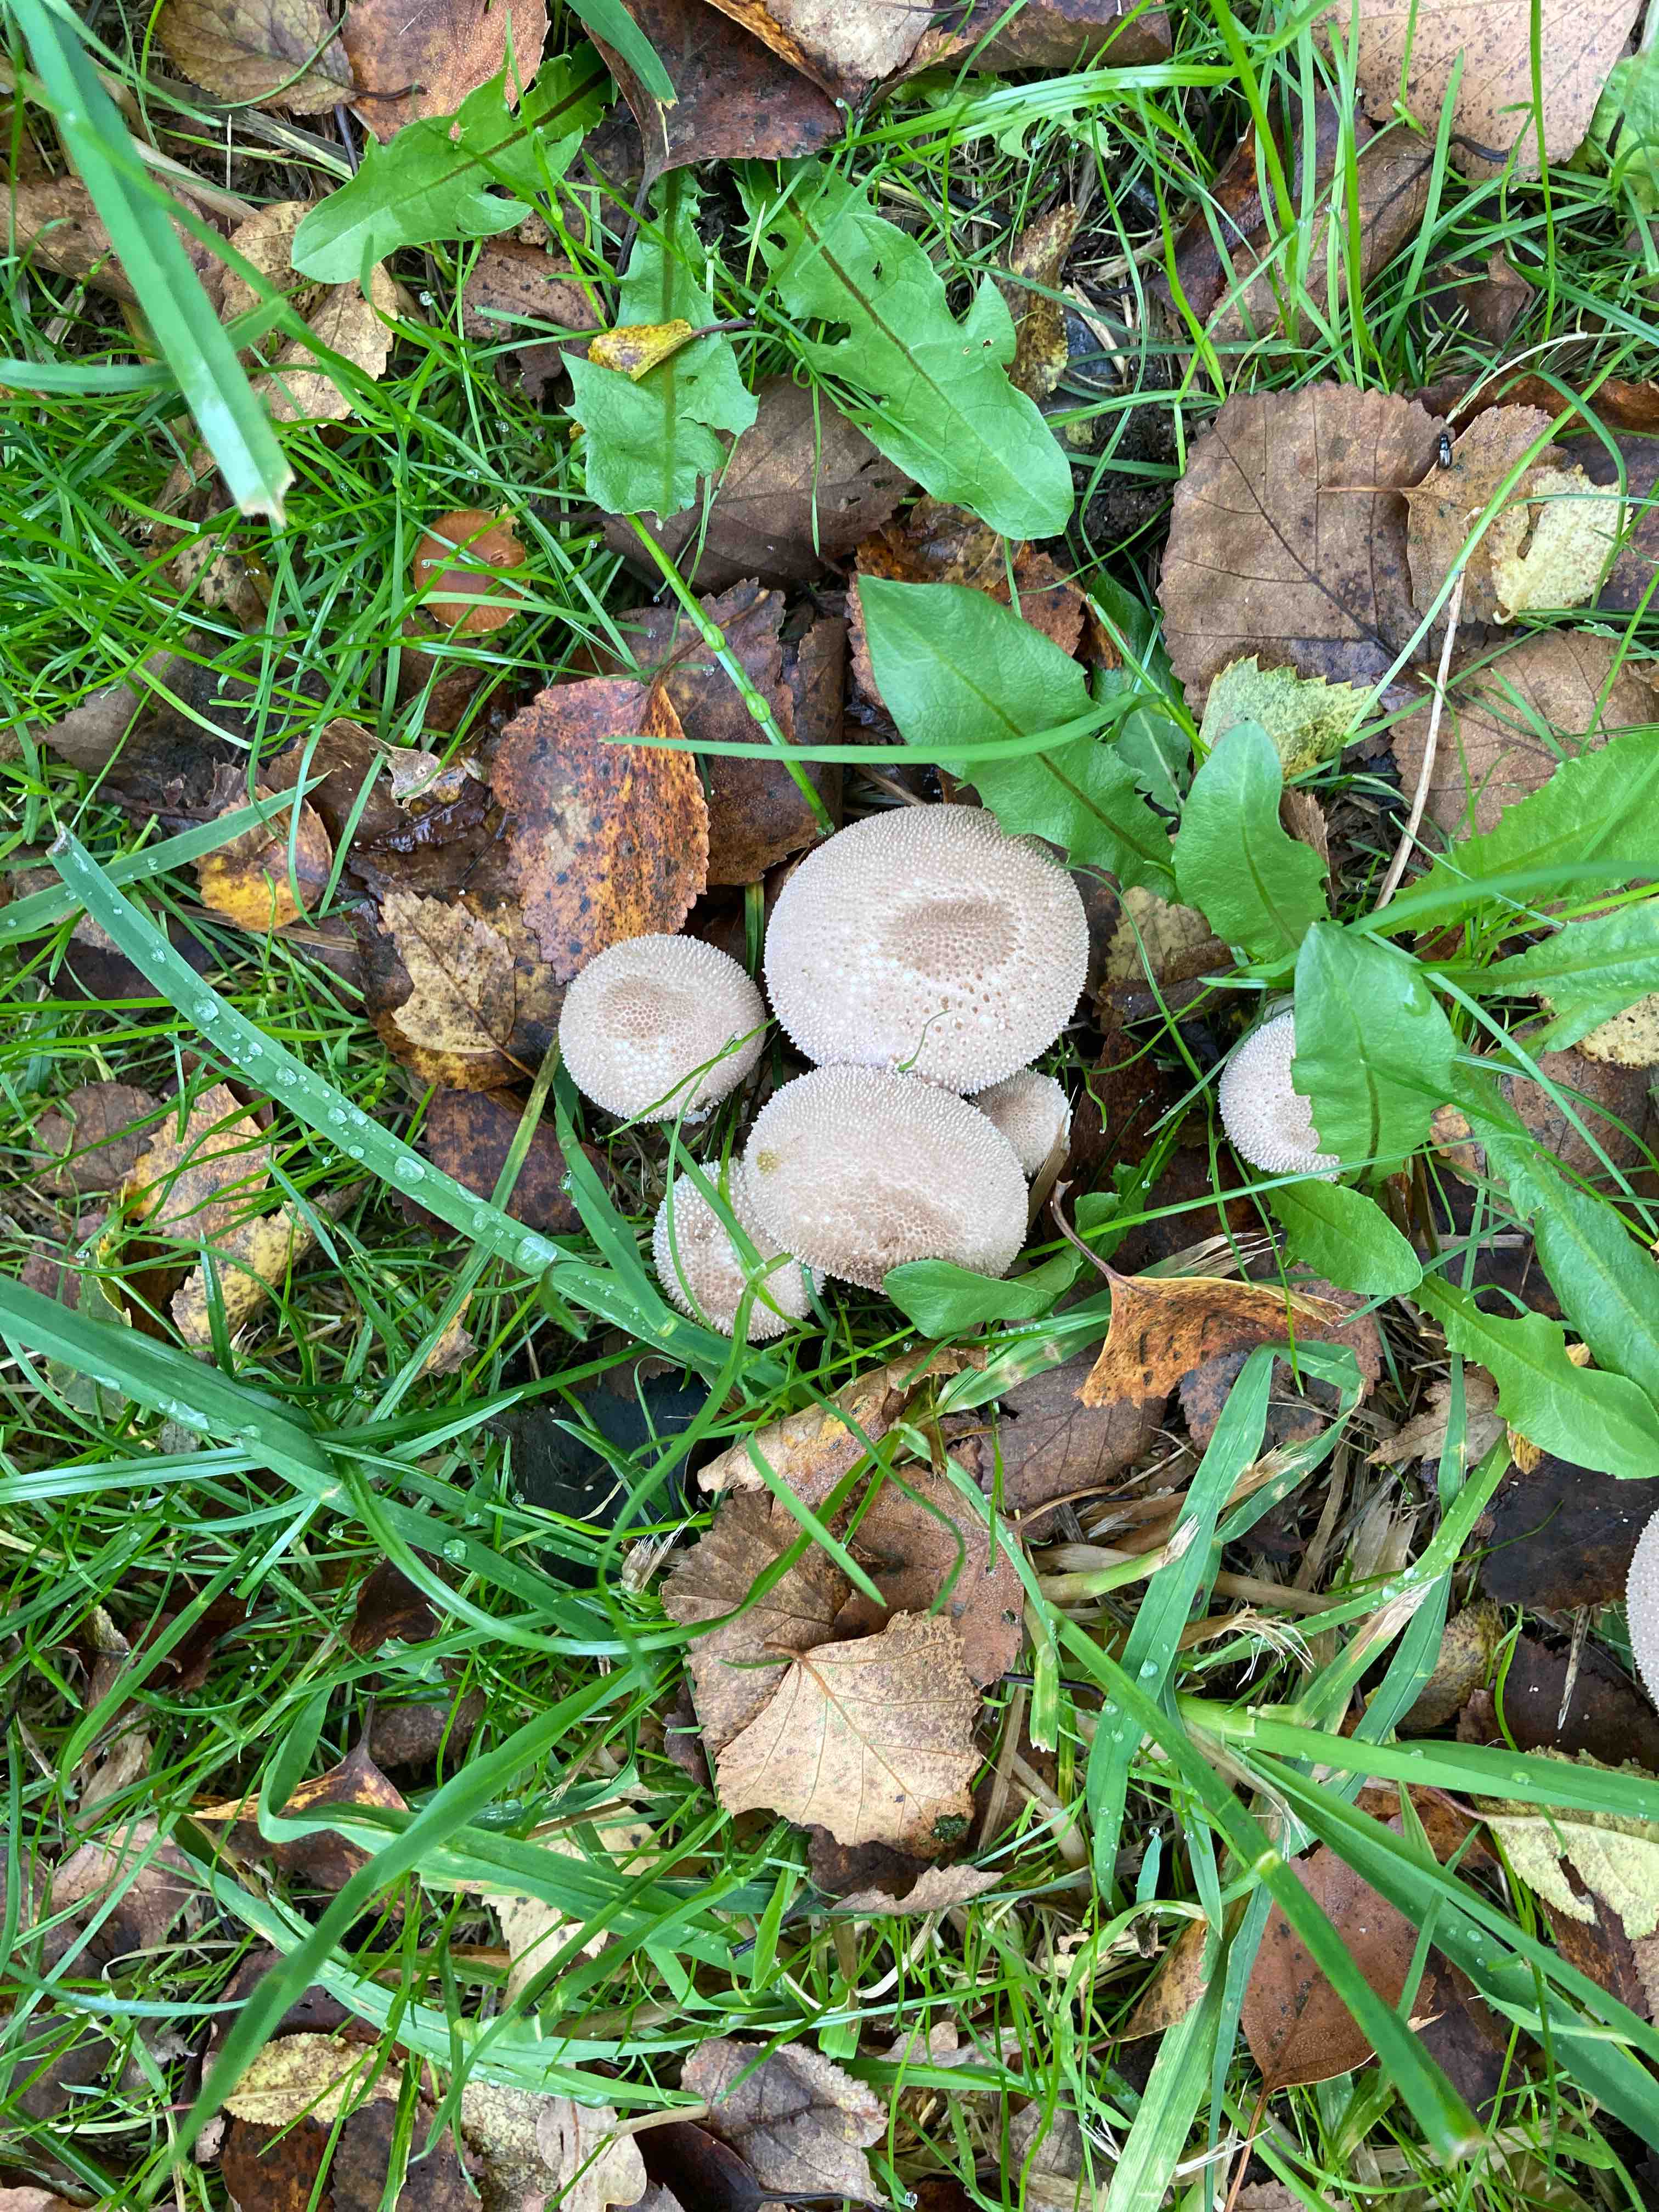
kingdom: Fungi
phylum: Basidiomycota
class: Agaricomycetes
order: Agaricales
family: Lycoperdaceae
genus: Lycoperdon
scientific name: Lycoperdon perlatum
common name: krystal-støvbold
